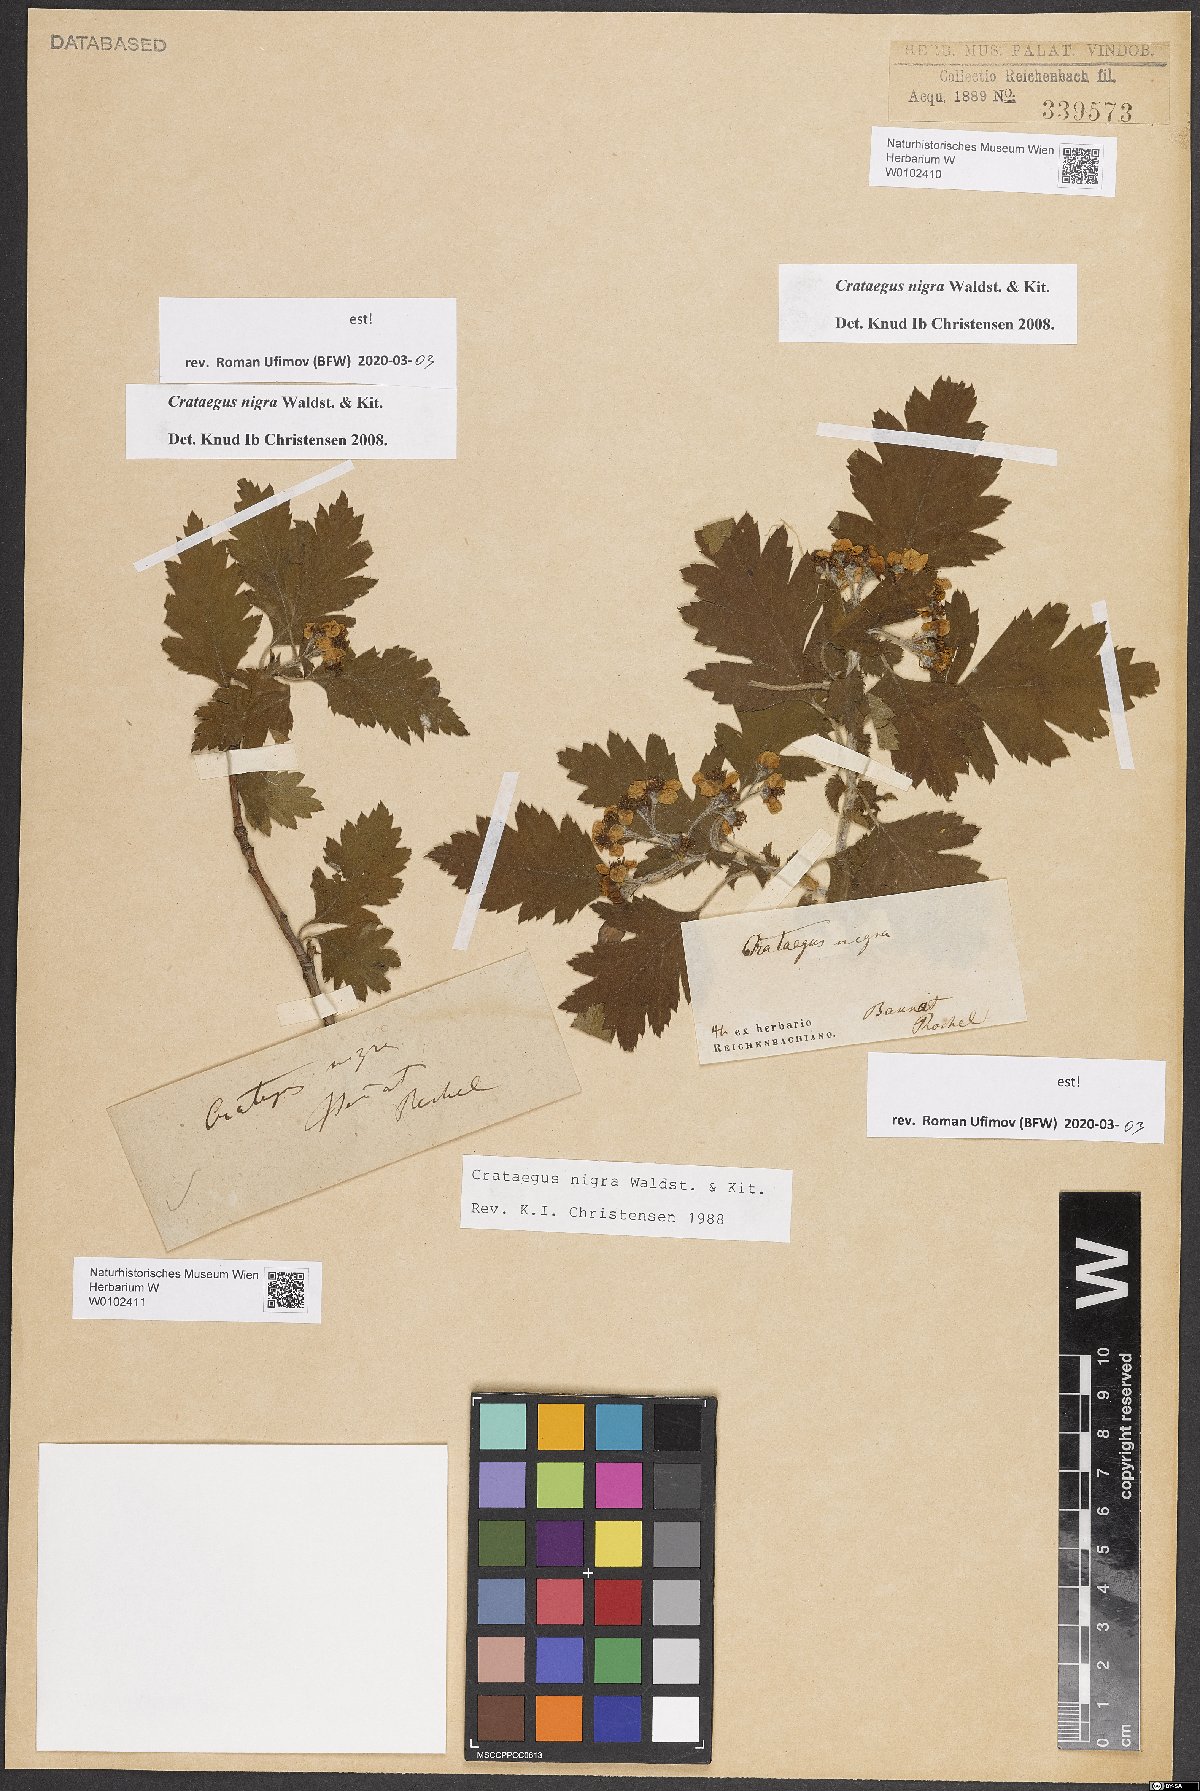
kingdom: Plantae
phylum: Tracheophyta
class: Magnoliopsida
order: Rosales
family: Rosaceae
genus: Crataegus
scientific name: Crataegus nigra
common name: Hungarian thorn
